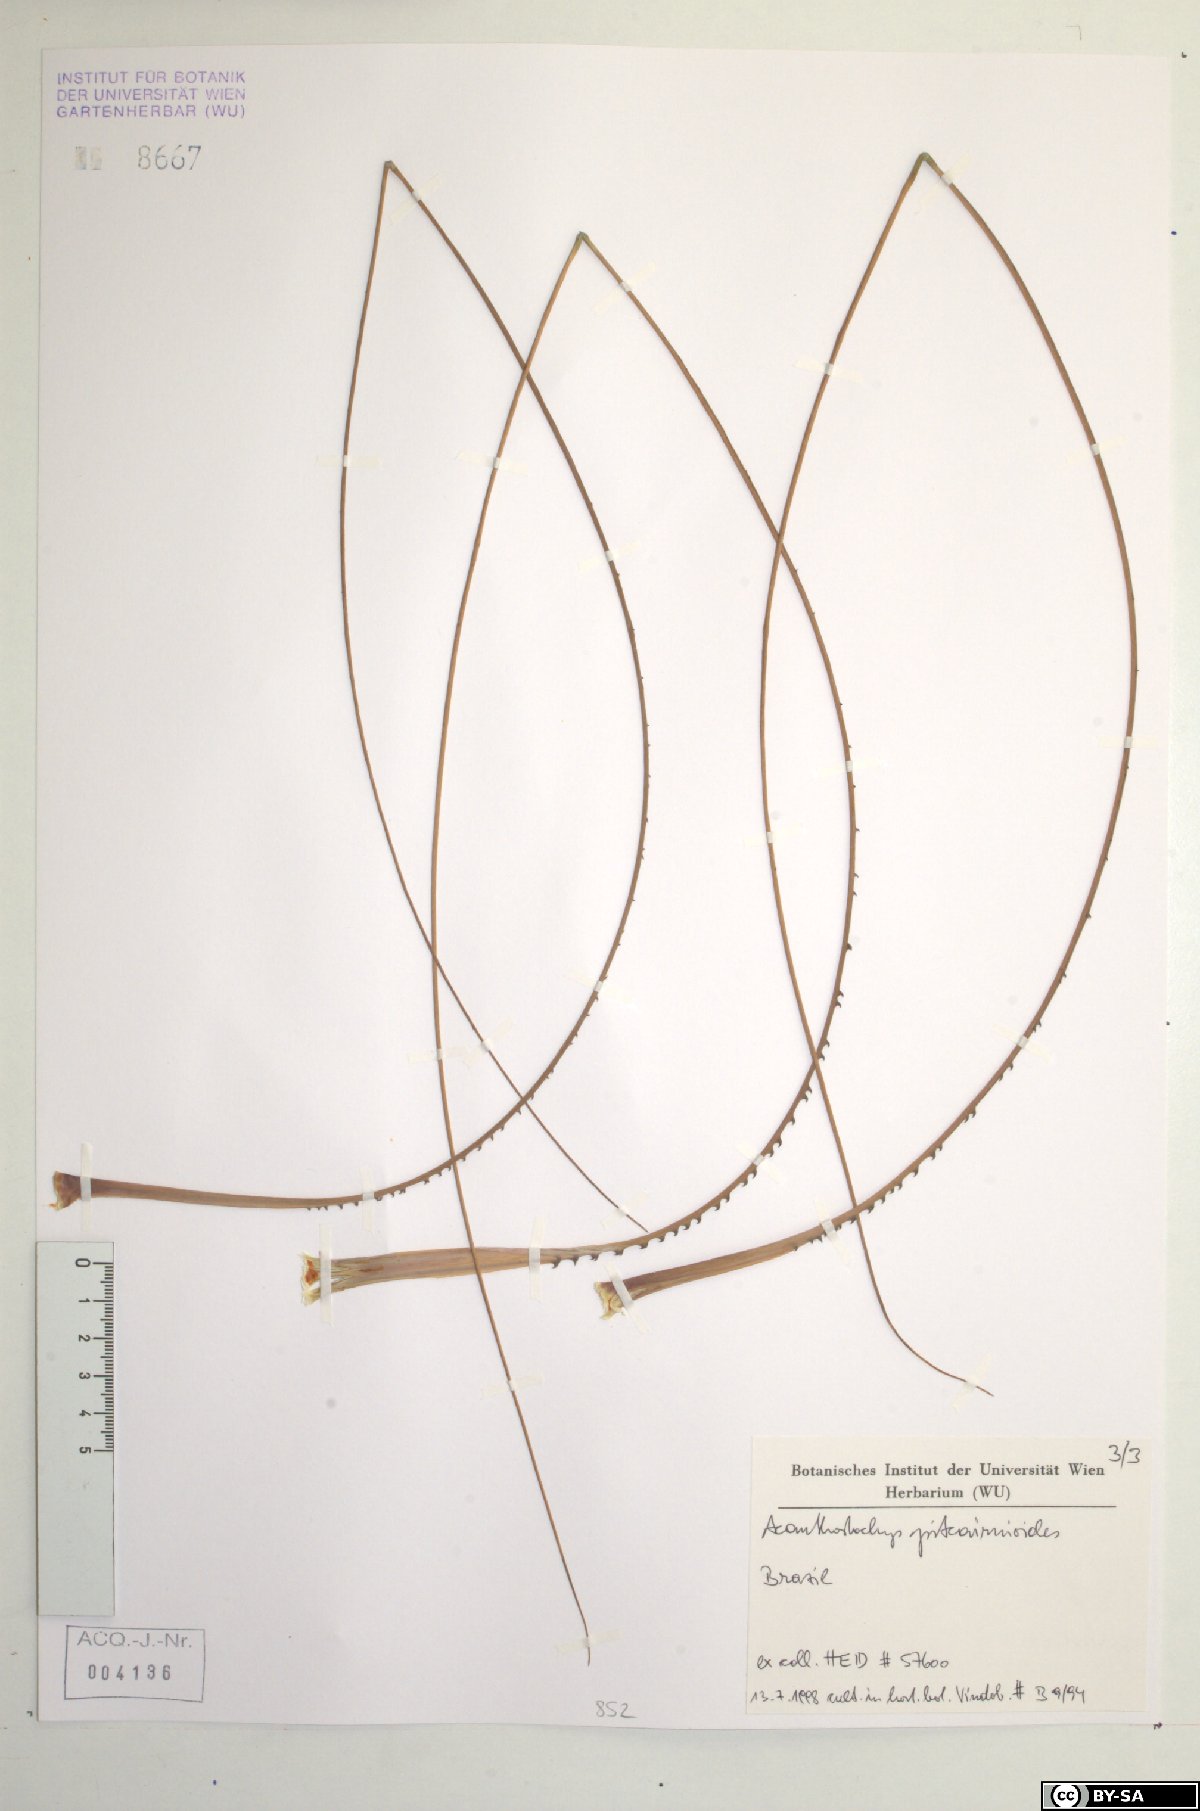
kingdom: Plantae
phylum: Tracheophyta
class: Liliopsida
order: Poales
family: Bromeliaceae
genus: Acanthostachys
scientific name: Acanthostachys pitcairnioides
